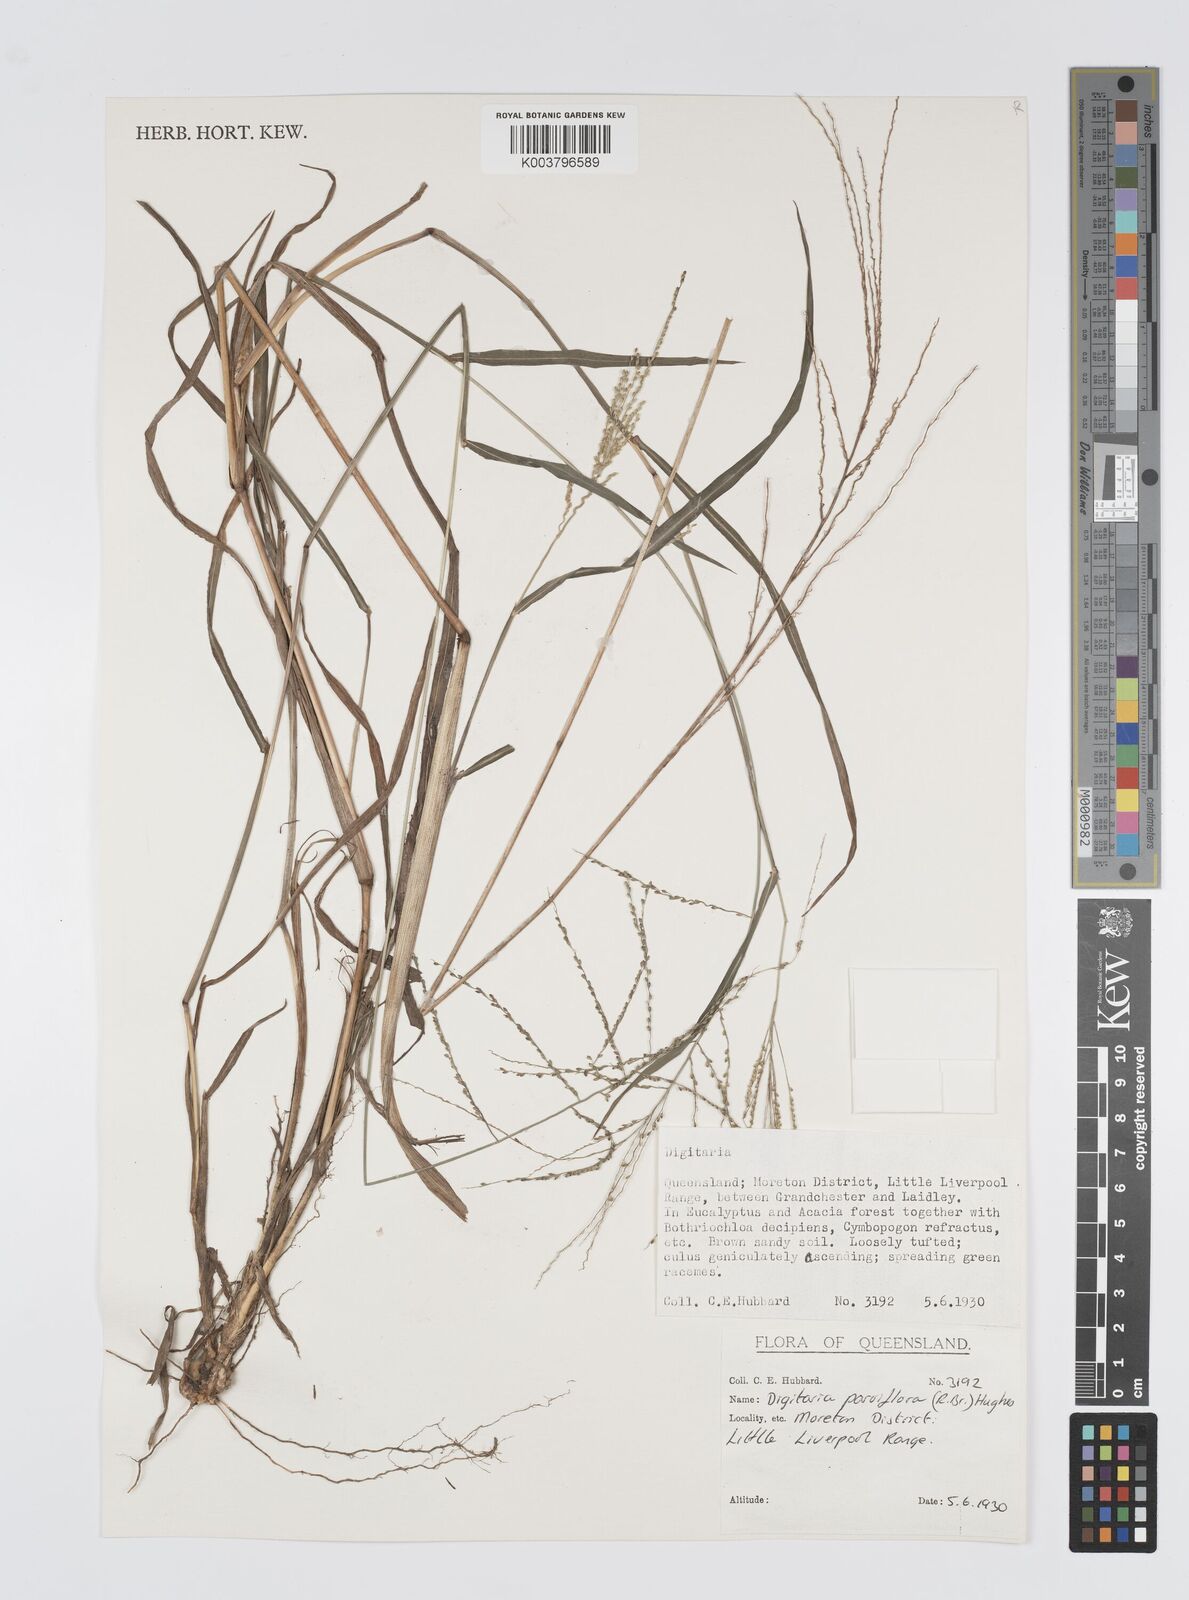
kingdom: Plantae
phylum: Tracheophyta
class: Liliopsida
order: Poales
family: Poaceae
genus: Digitaria
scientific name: Digitaria parviflora
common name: Small-flower finger grass
